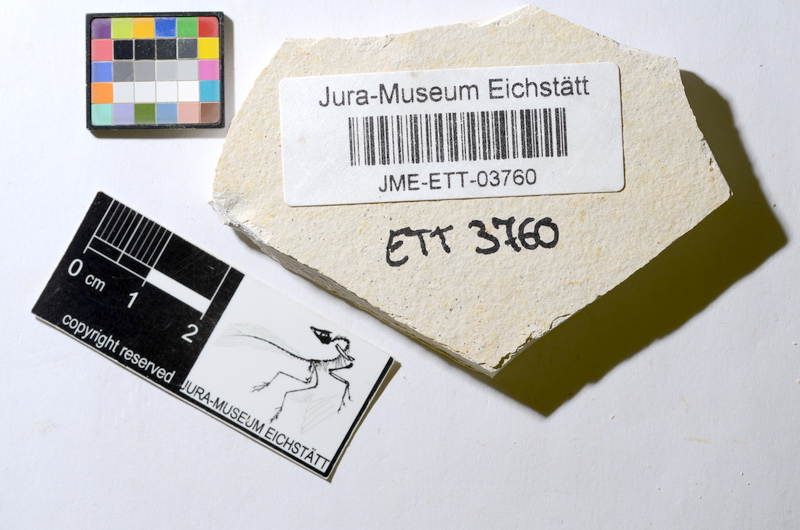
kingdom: Animalia
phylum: Chordata
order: Salmoniformes
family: Orthogonikleithridae
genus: Orthogonikleithrus
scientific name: Orthogonikleithrus hoelli
